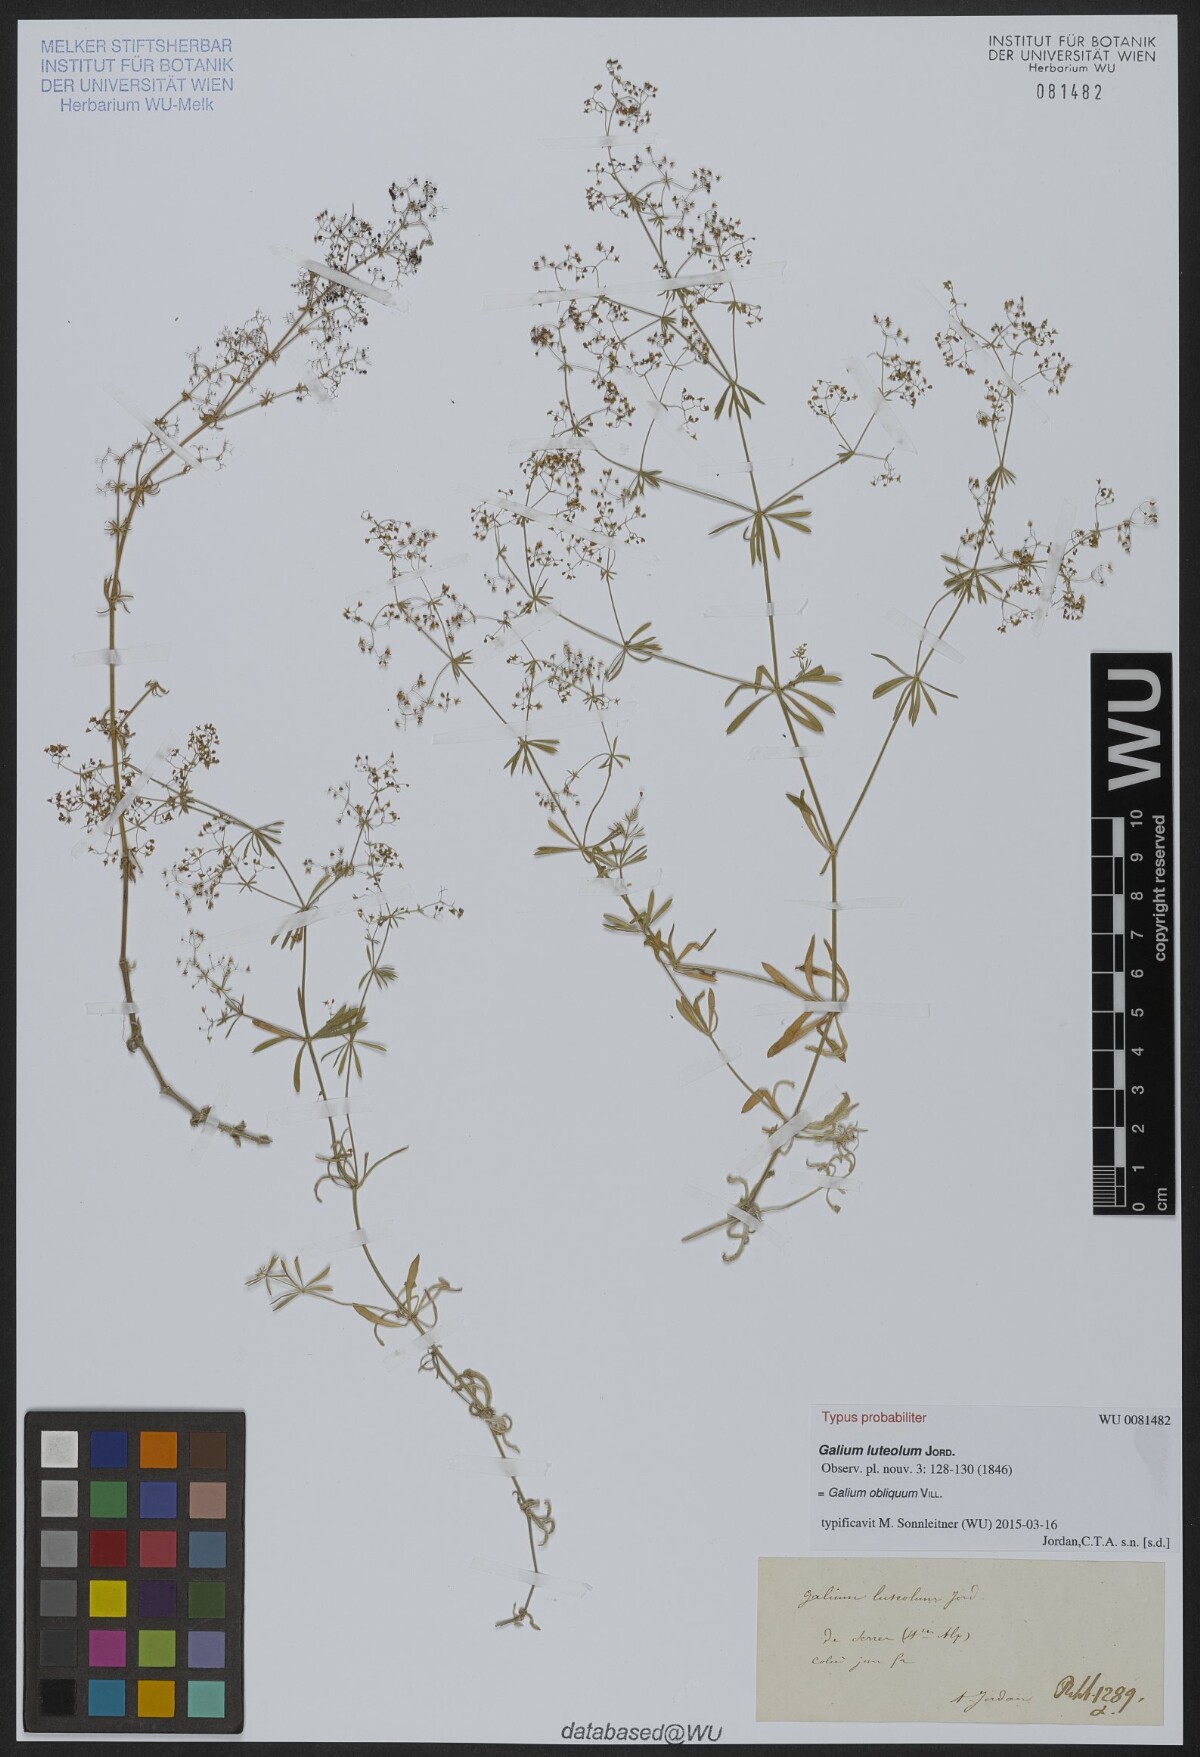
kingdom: Plantae
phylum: Tracheophyta
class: Magnoliopsida
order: Gentianales
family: Rubiaceae
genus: Galium
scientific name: Galium obliquum
